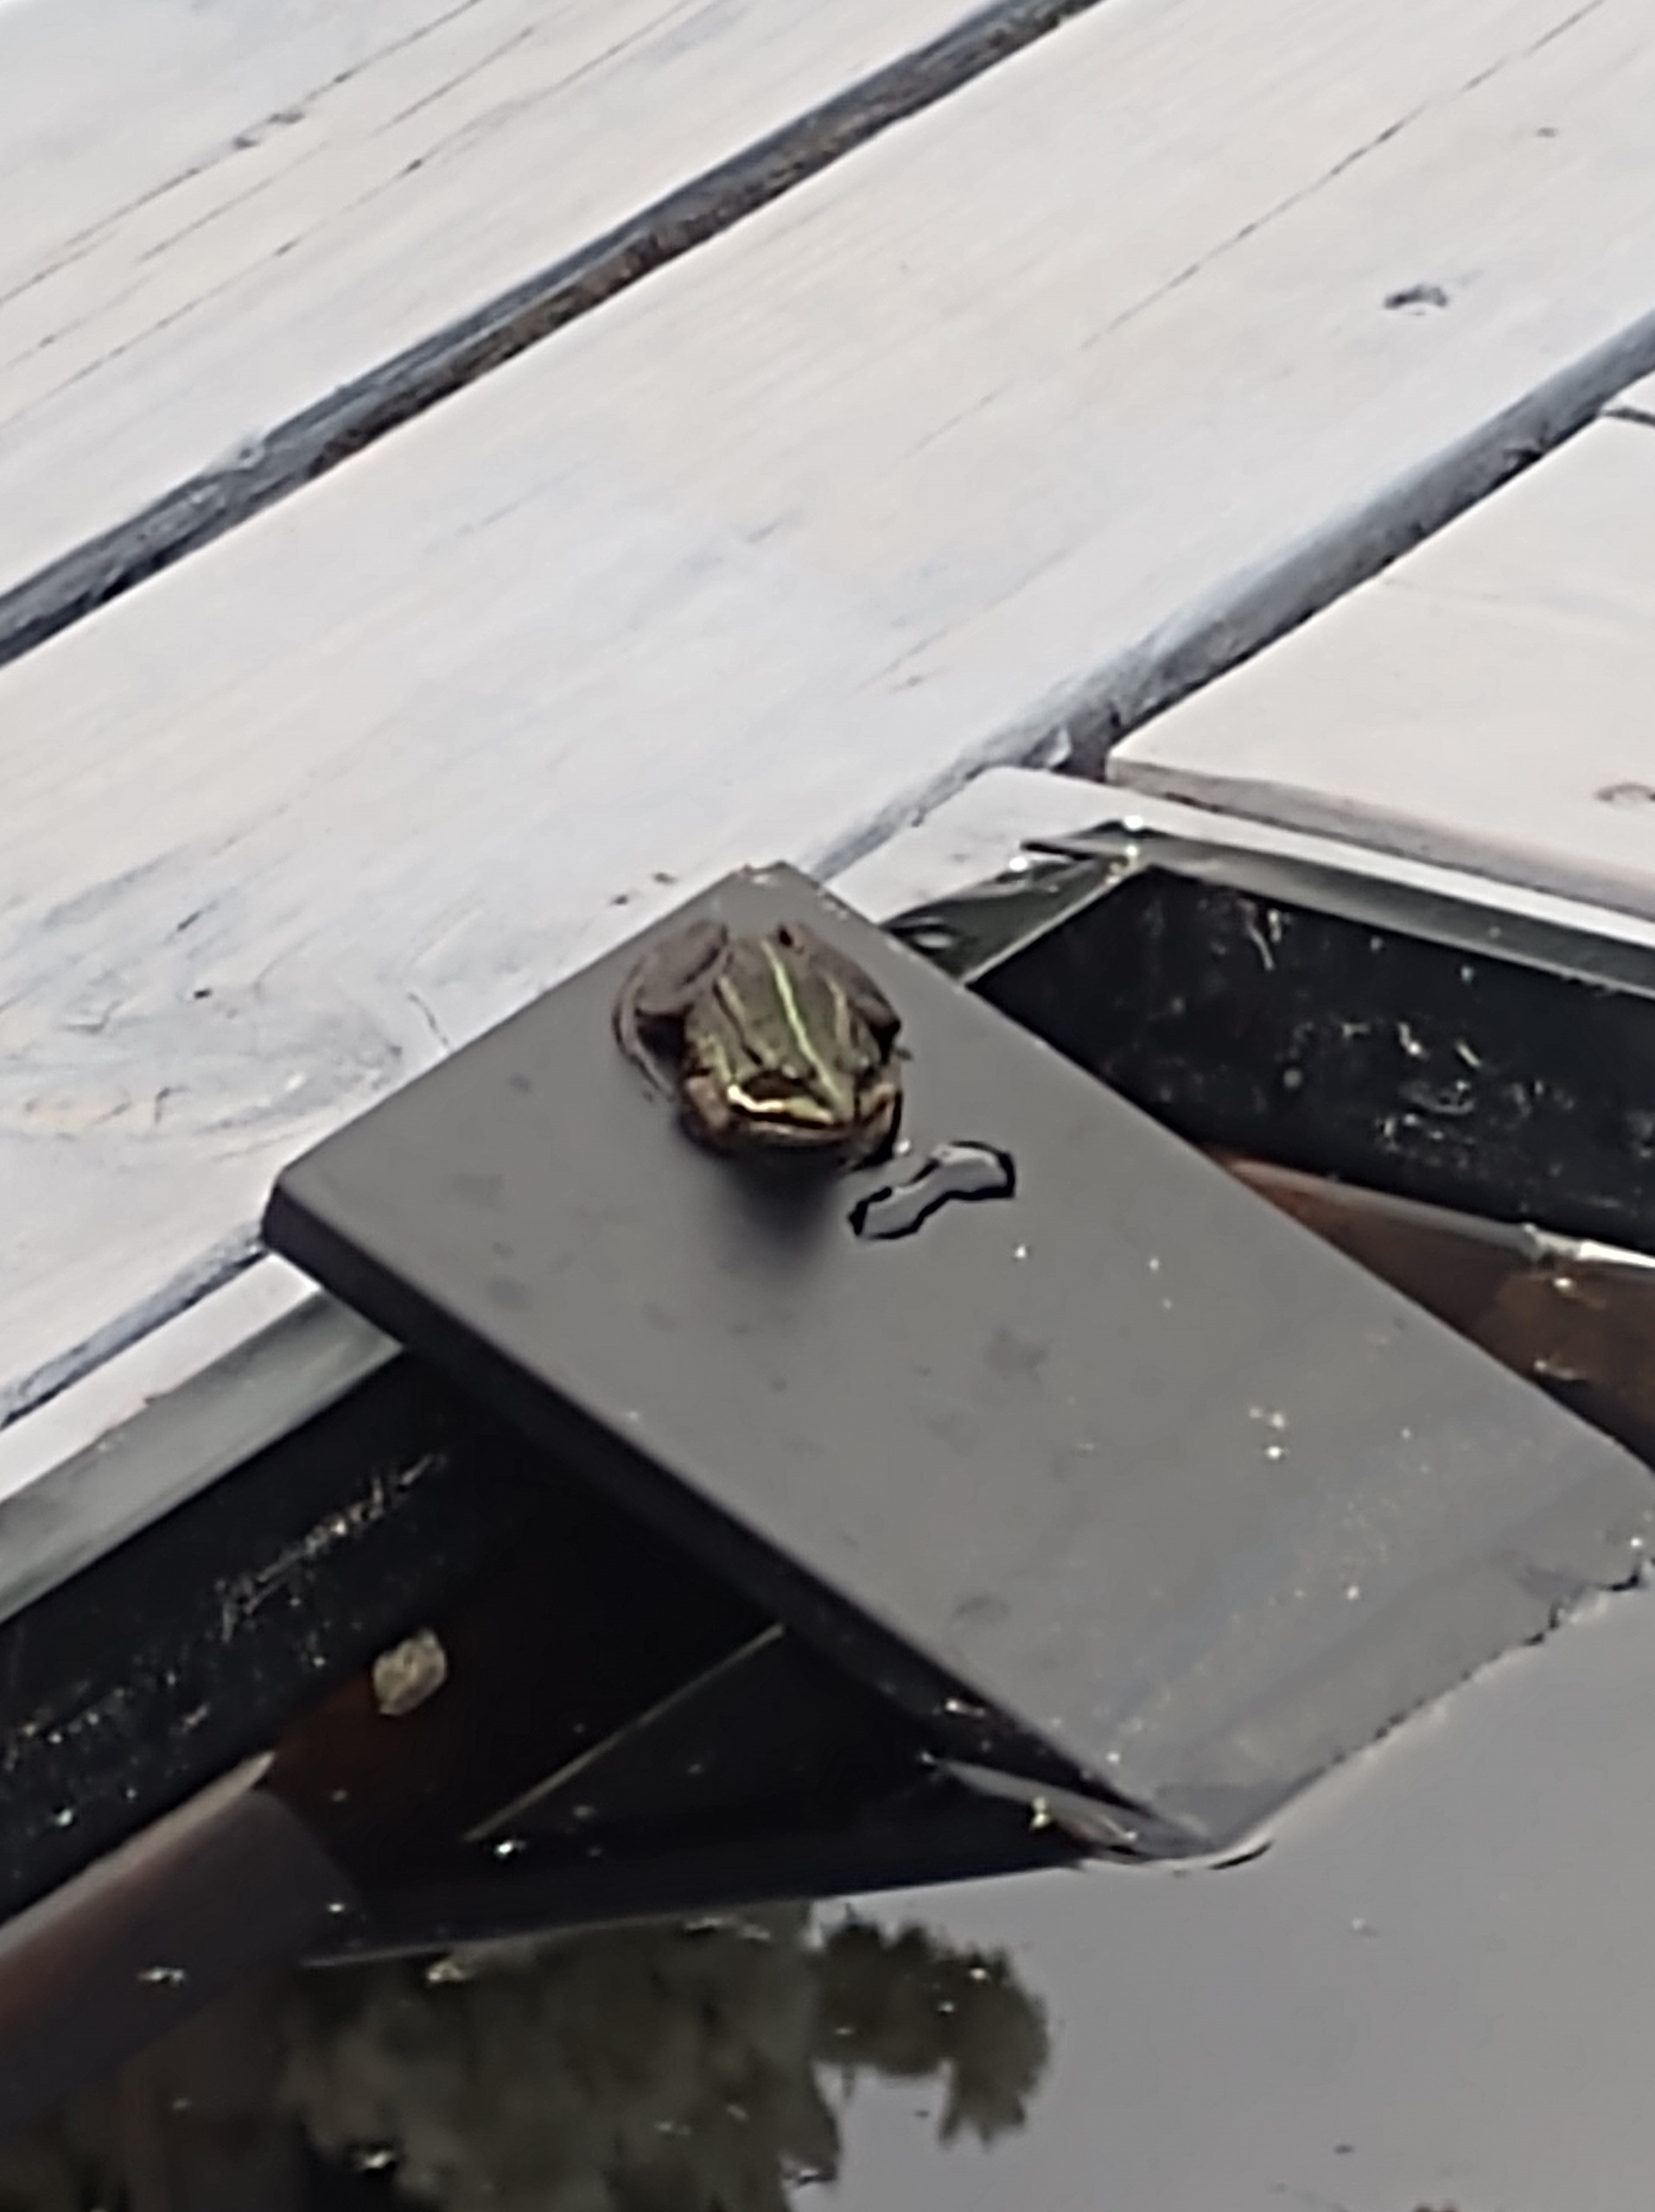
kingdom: Animalia
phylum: Chordata
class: Amphibia
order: Anura
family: Ranidae
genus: Pelophylax
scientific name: Pelophylax lessonae
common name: Grøn frø
